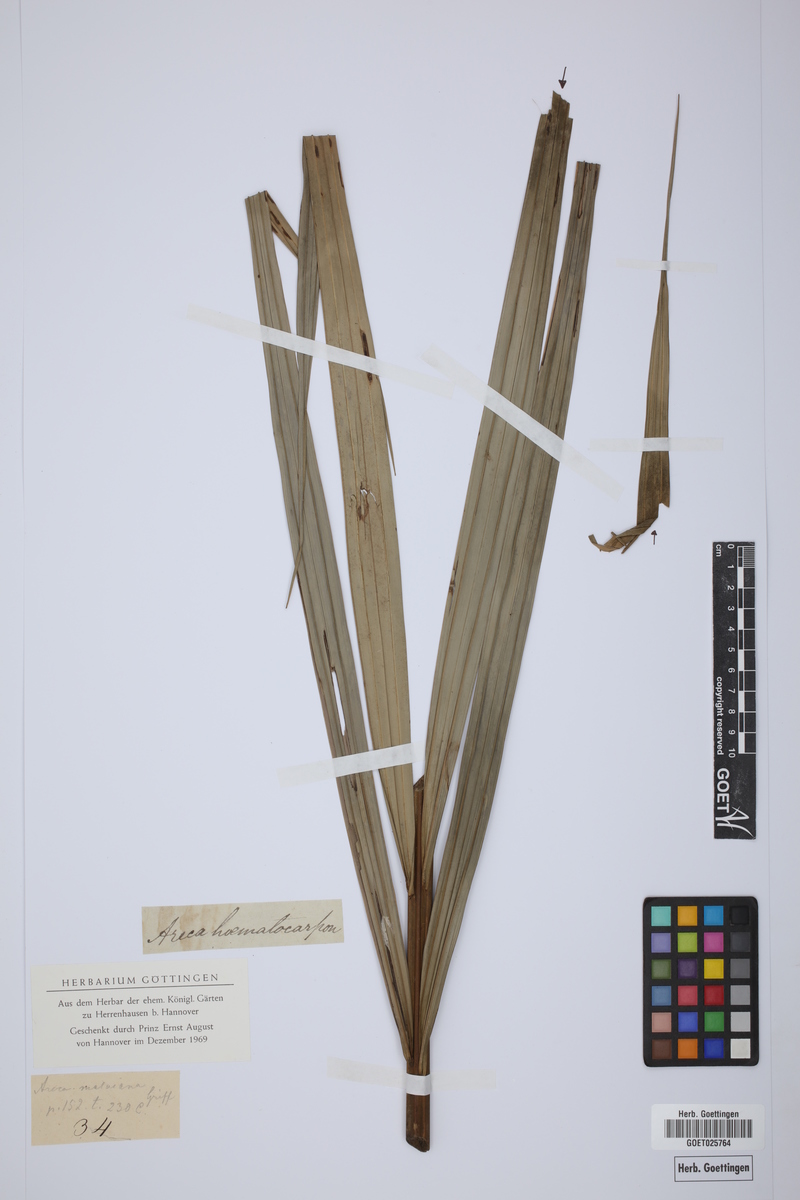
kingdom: Plantae
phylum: Tracheophyta
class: Liliopsida
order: Arecales
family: Arecaceae
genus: Pinanga
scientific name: Pinanga malaiana
